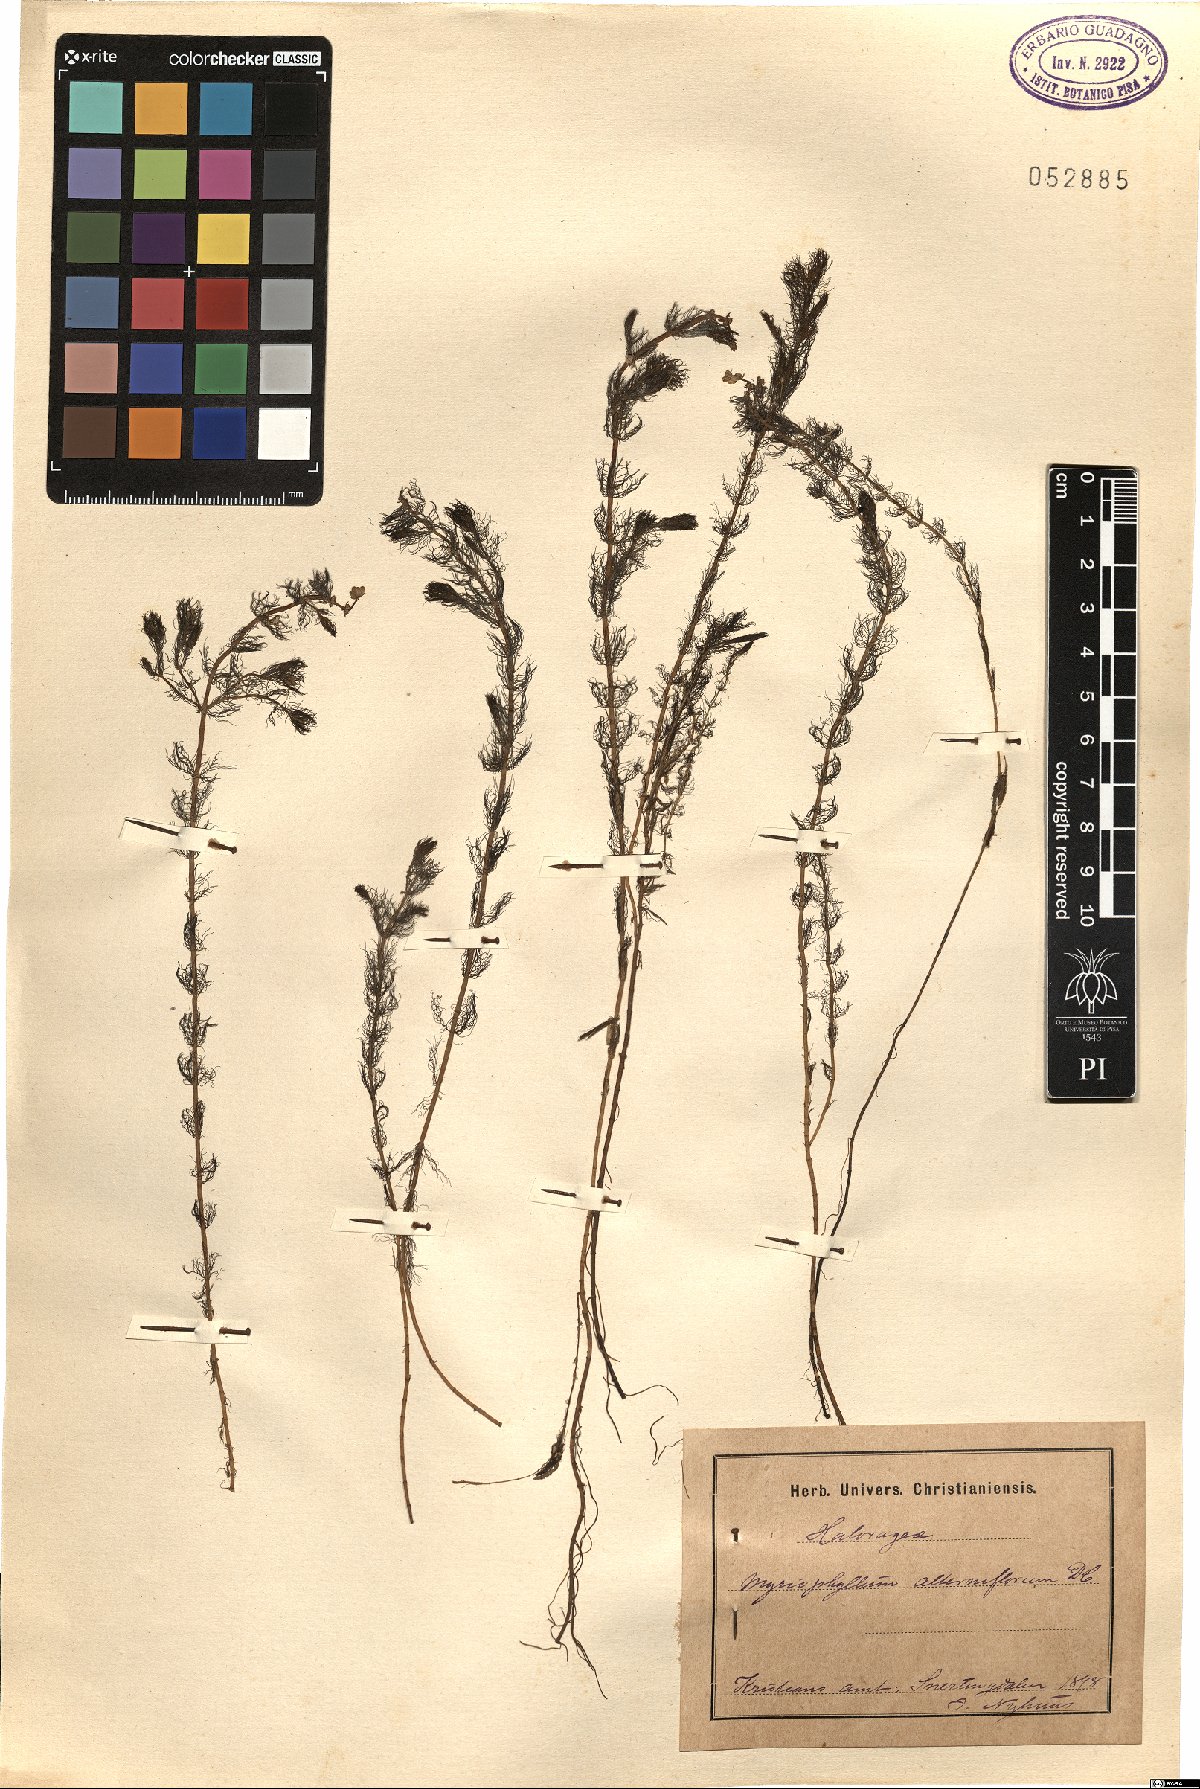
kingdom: Plantae
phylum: Tracheophyta
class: Magnoliopsida
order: Saxifragales
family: Haloragaceae
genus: Myriophyllum
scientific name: Myriophyllum alterniflorum
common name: Alternate water-milfoil
